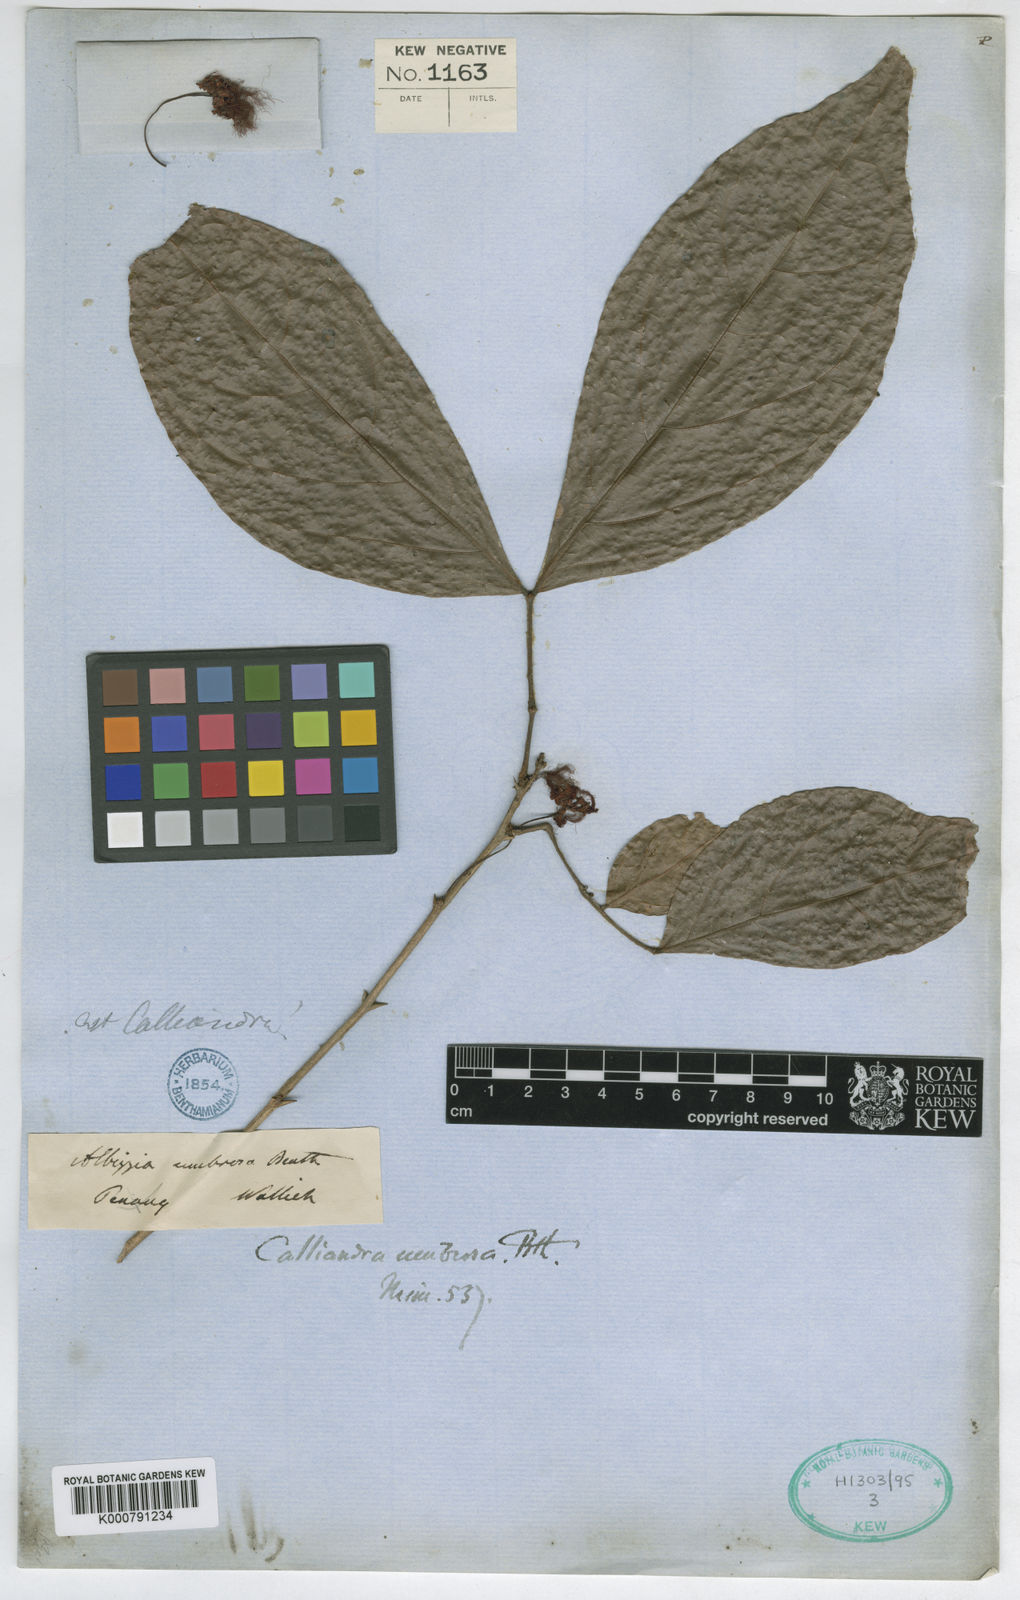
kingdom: Plantae
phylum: Tracheophyta
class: Magnoliopsida
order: Fabales
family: Fabaceae
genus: Albizia
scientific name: Albizia umbrosa
